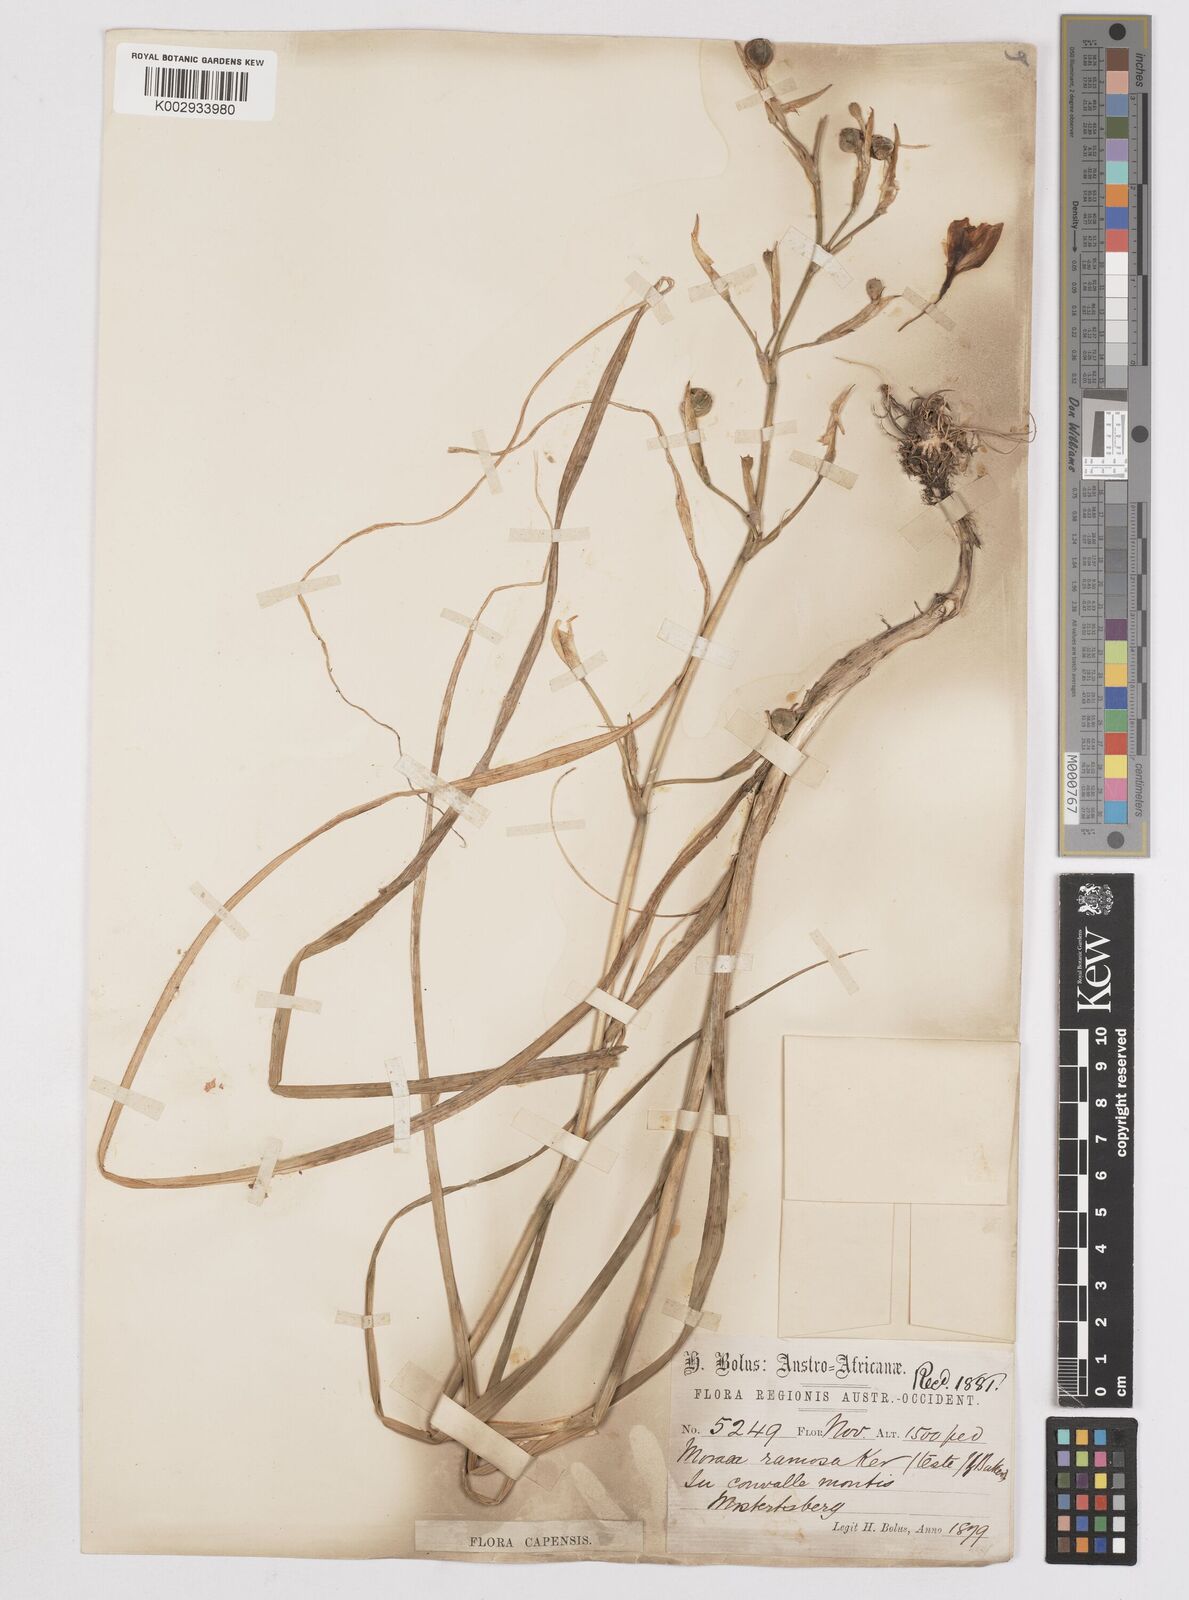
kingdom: Plantae
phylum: Tracheophyta
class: Liliopsida
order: Asparagales
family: Iridaceae
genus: Moraea
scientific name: Moraea ramosissima
